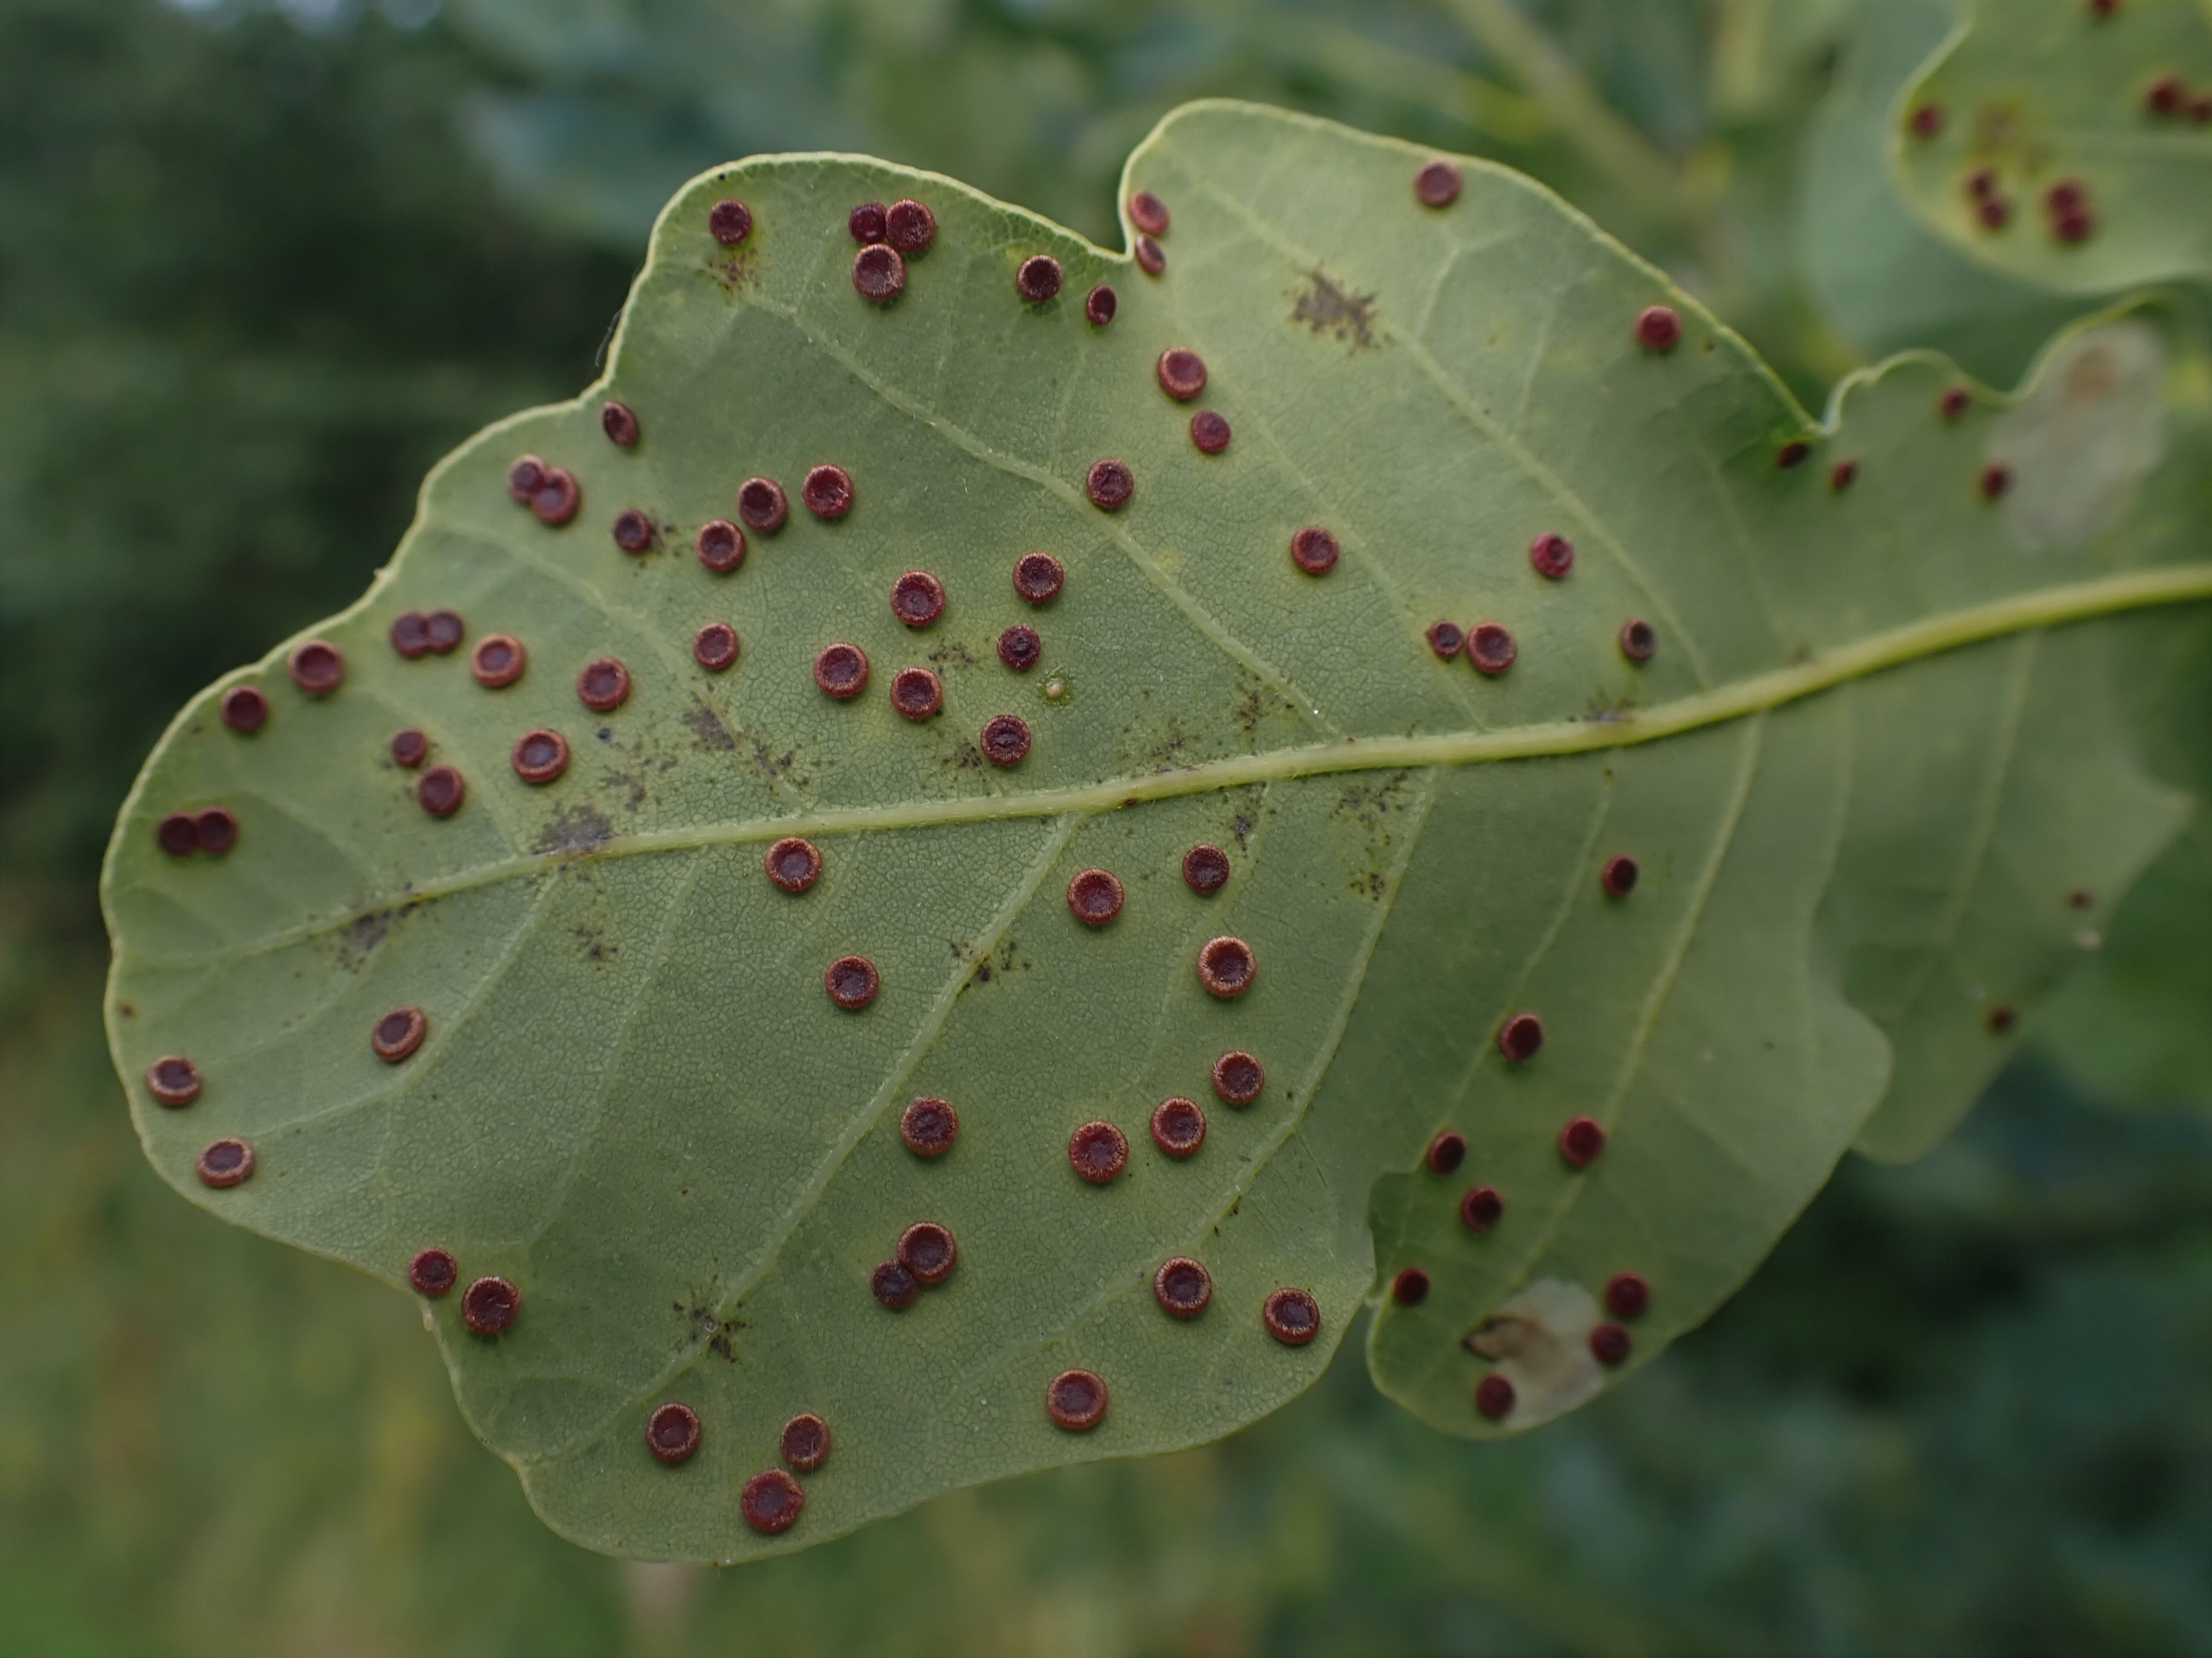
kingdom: Animalia
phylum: Arthropoda
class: Insecta
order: Hymenoptera
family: Cynipidae
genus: Neuroterus
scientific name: Neuroterus numismalis
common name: Knapgalhveps
